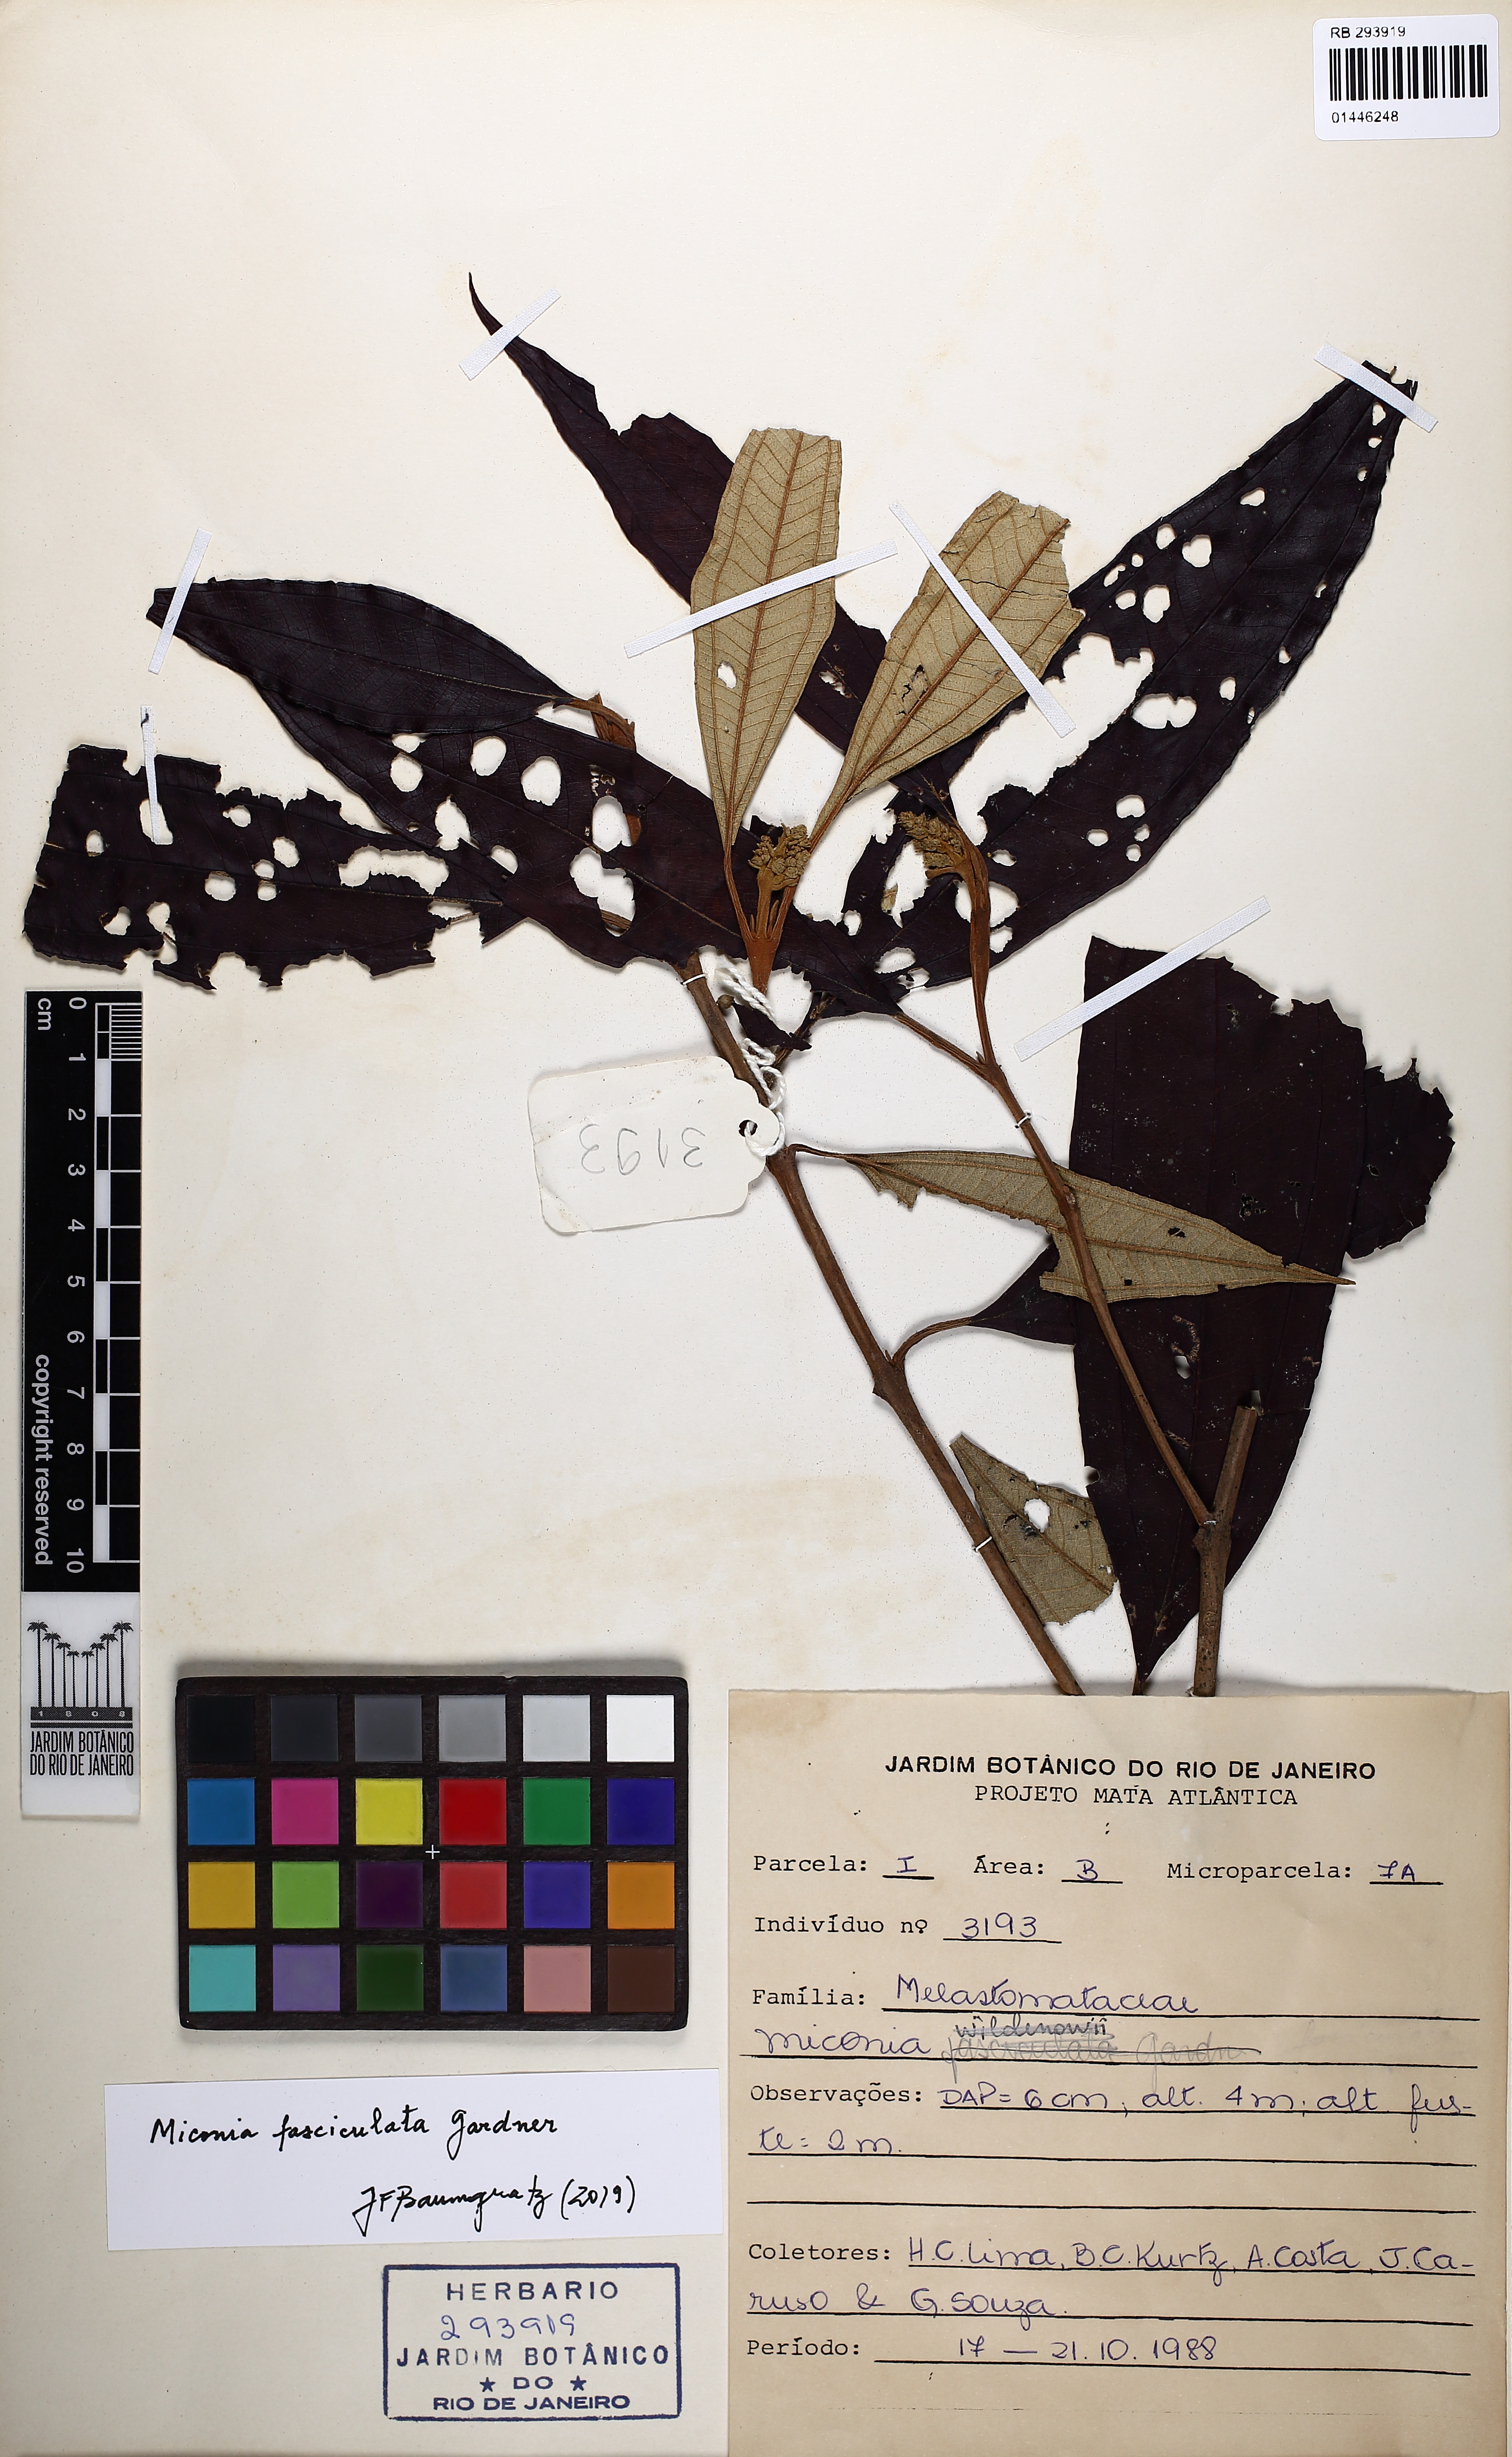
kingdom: Plantae
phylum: Tracheophyta
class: Magnoliopsida
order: Myrtales
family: Melastomataceae
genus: Miconia
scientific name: Miconia fasciculata
